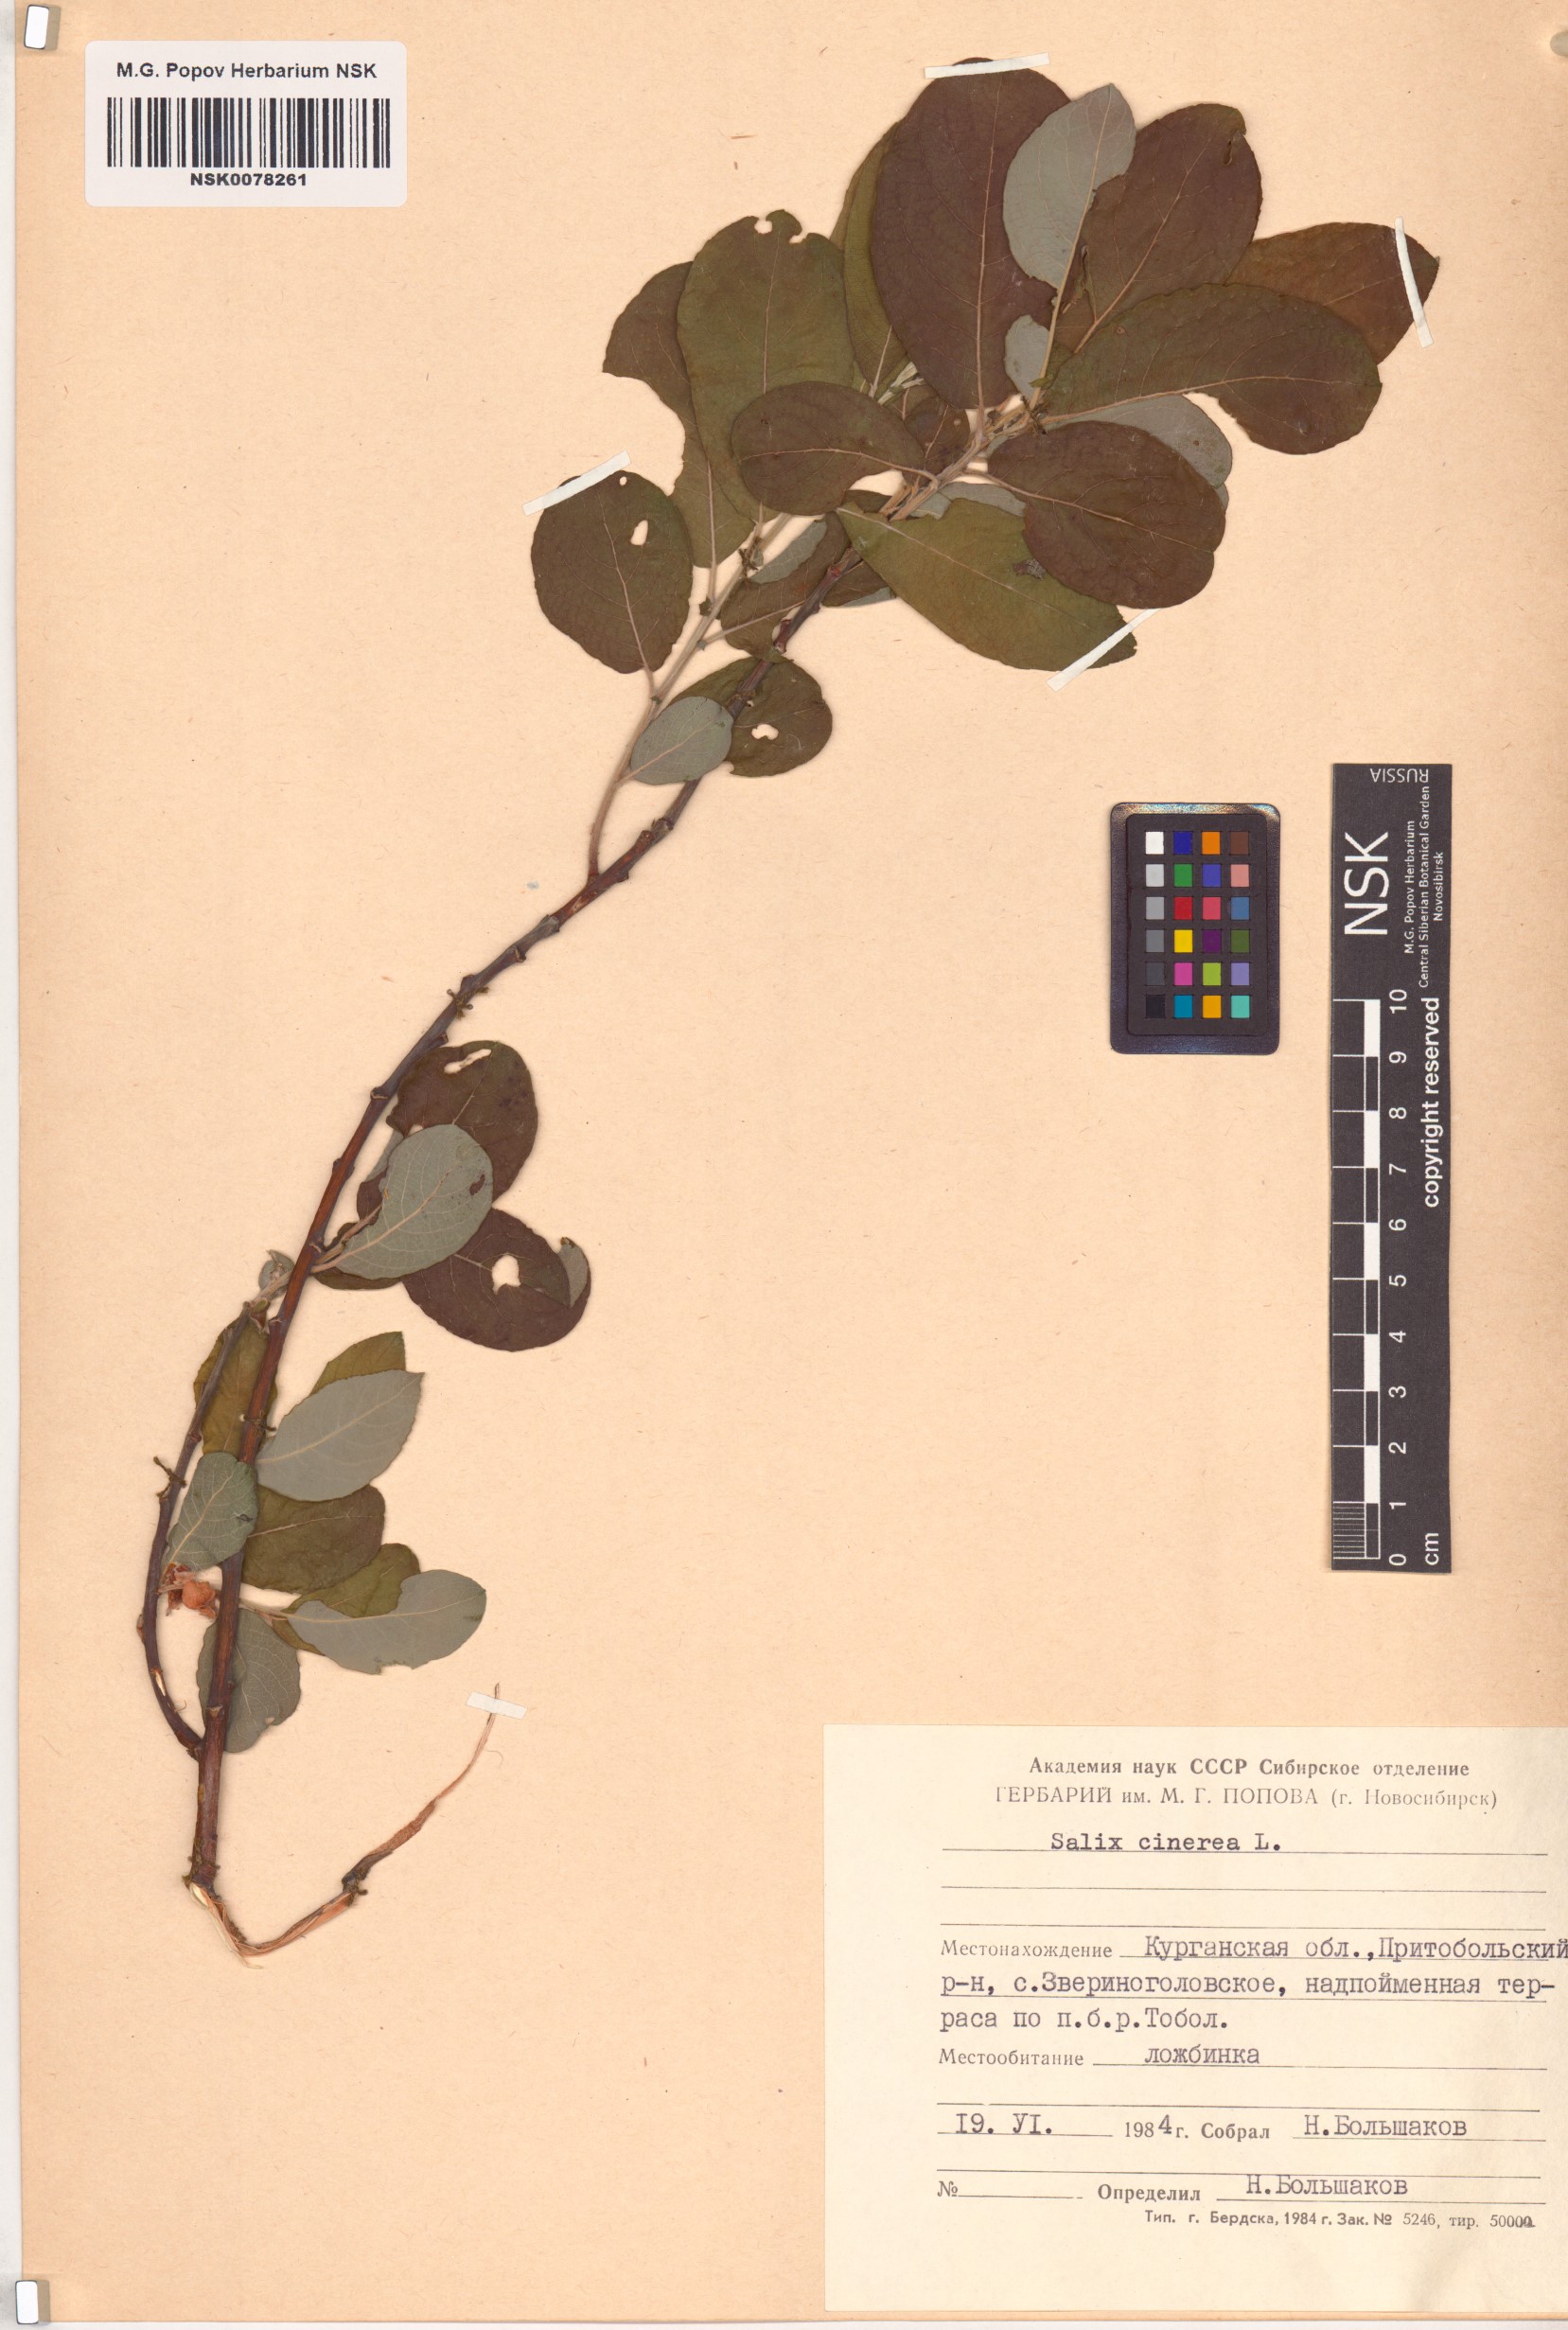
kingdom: Plantae
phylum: Tracheophyta
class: Magnoliopsida
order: Malpighiales
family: Salicaceae
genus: Salix
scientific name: Salix cinerea
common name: Common sallow
